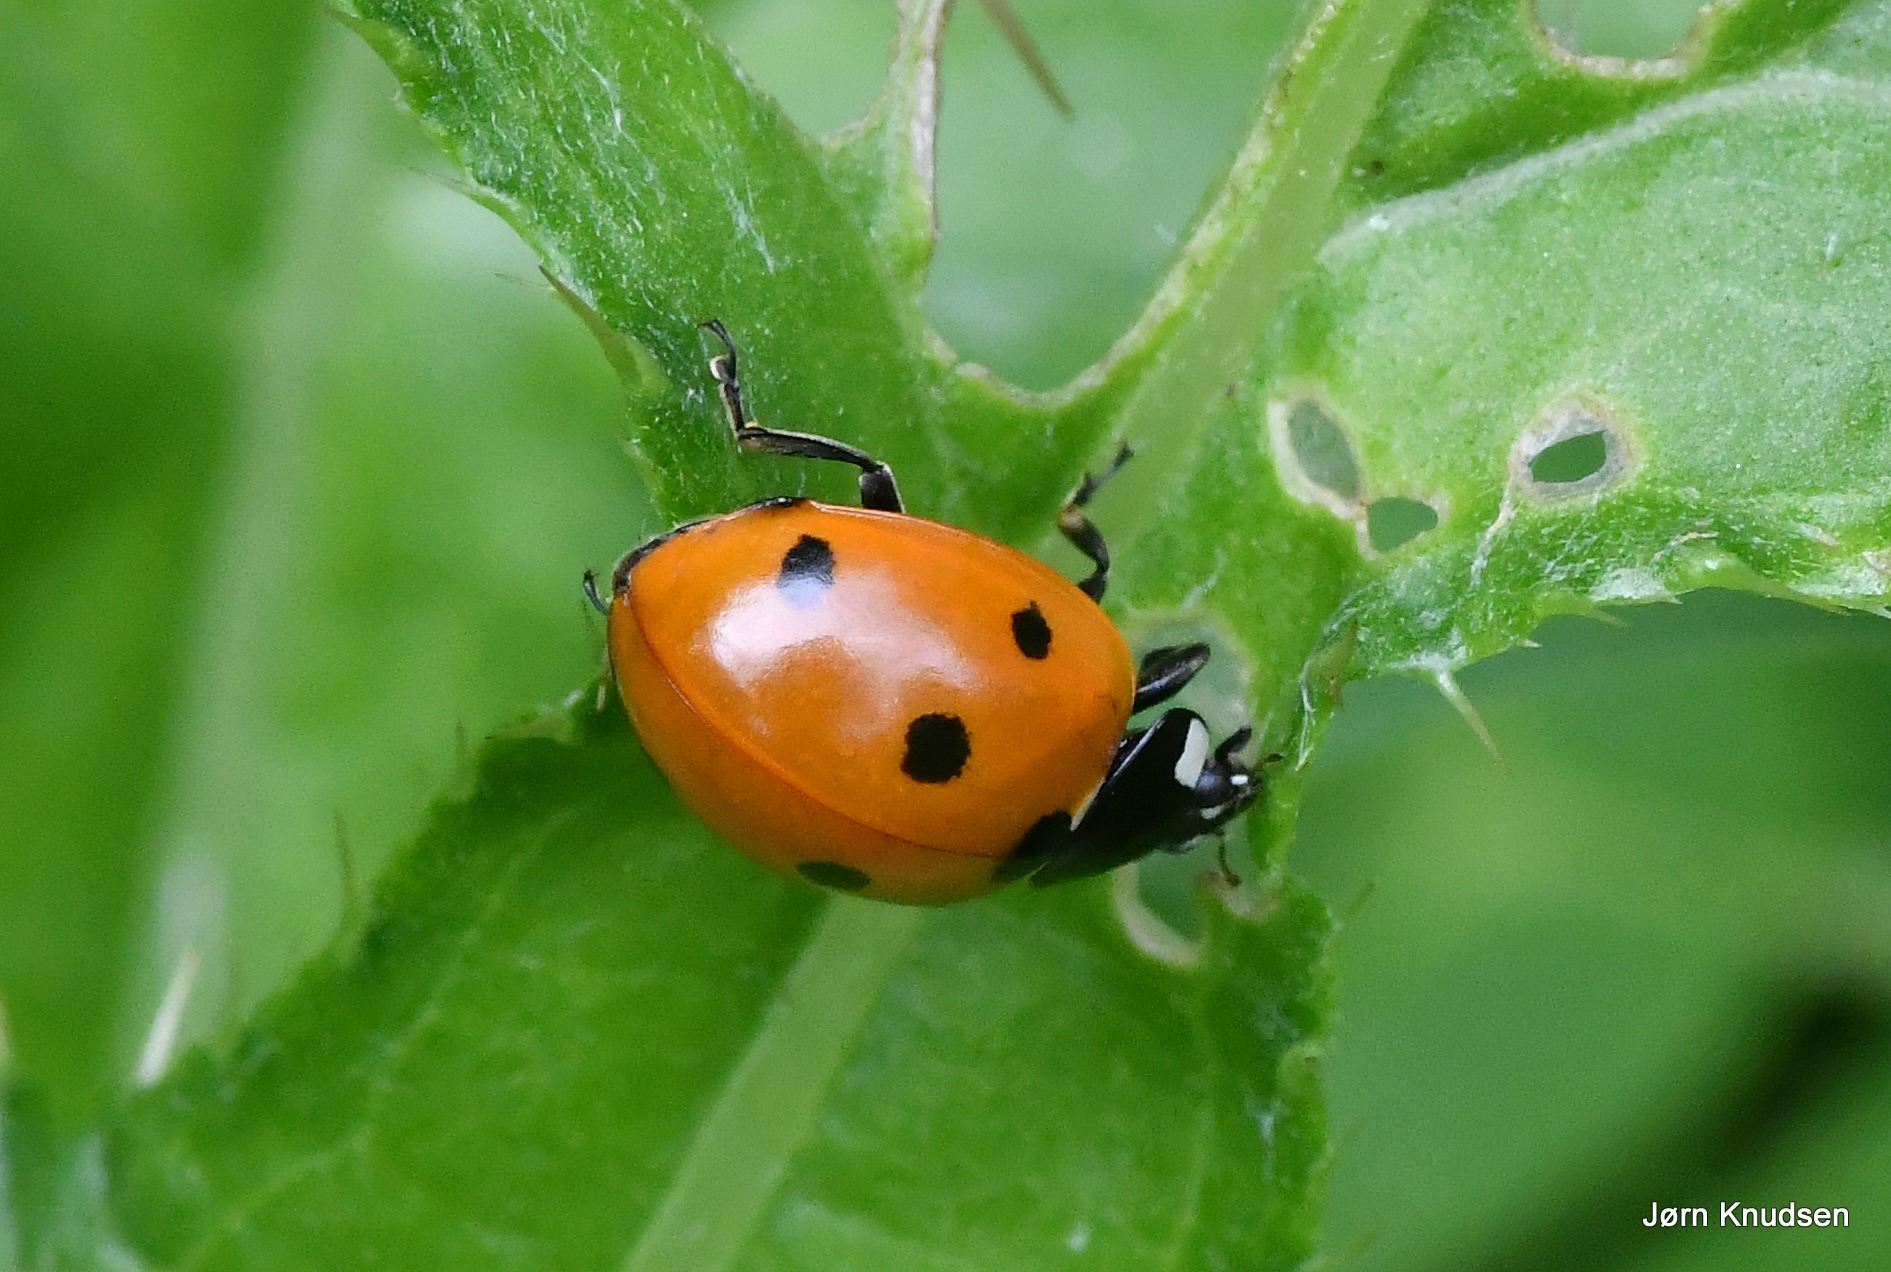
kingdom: Animalia
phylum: Arthropoda
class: Insecta
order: Coleoptera
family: Coccinellidae
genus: Coccinella
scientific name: Coccinella septempunctata
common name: Syvplettet mariehøne
